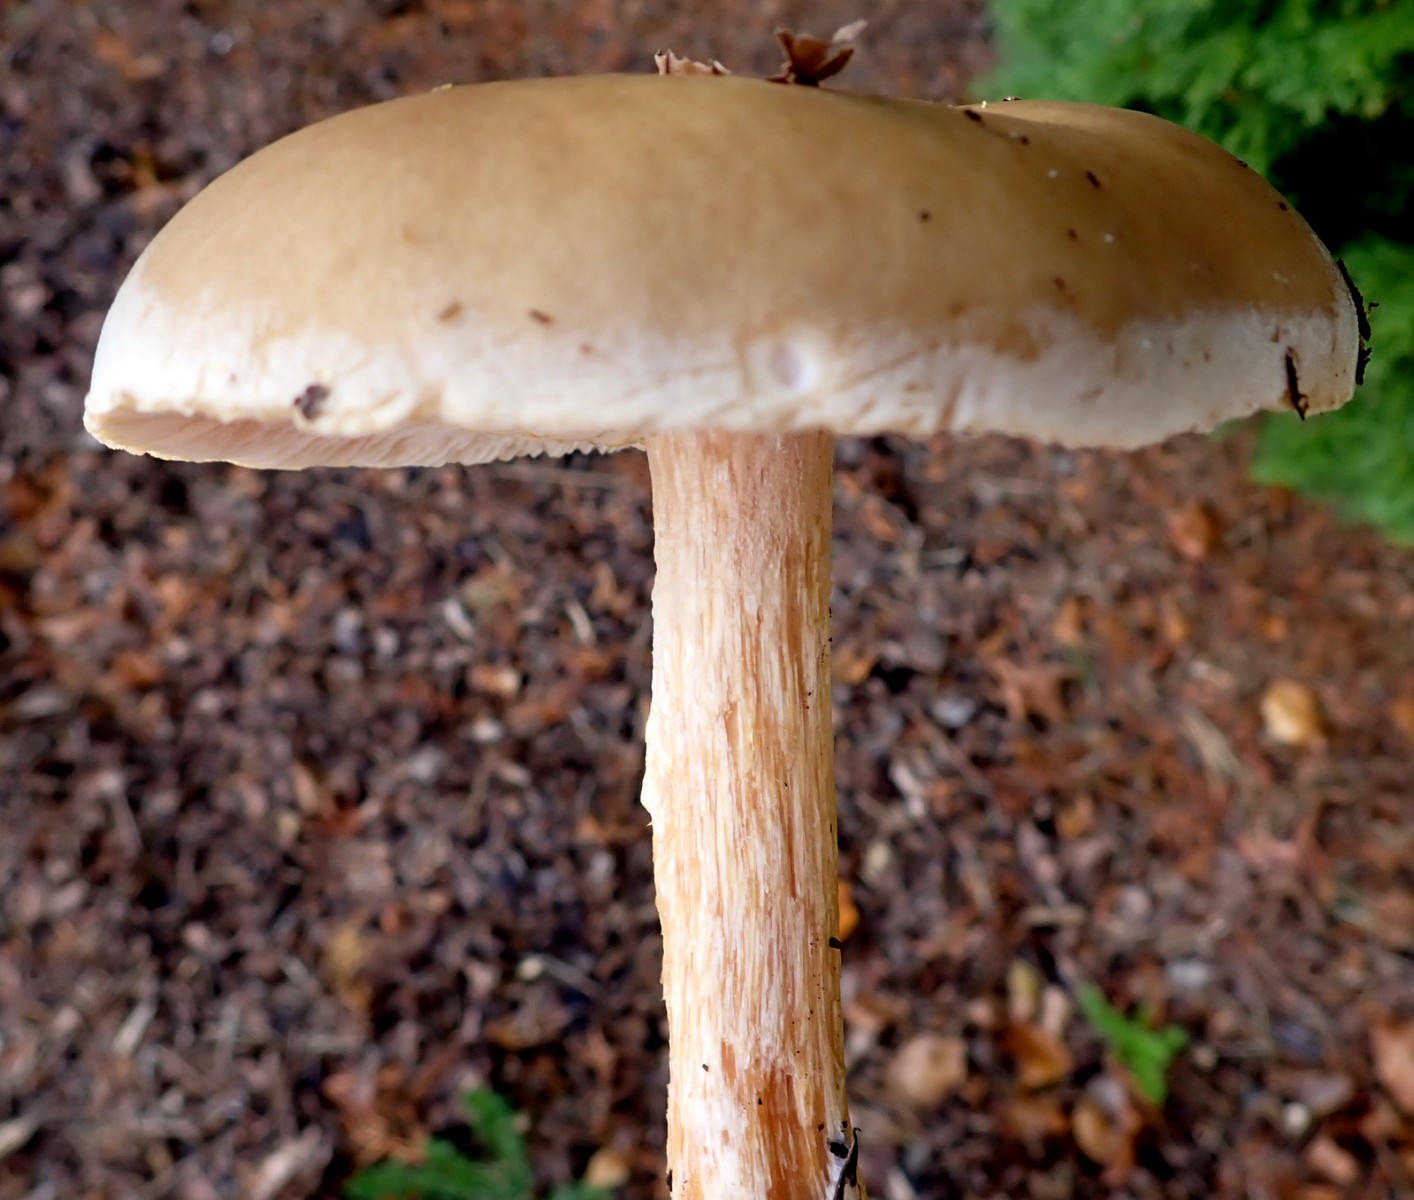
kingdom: Fungi
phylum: Basidiomycota
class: Agaricomycetes
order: Agaricales
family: Tricholomataceae
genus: Melanoleuca
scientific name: Melanoleuca
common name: munkehat
